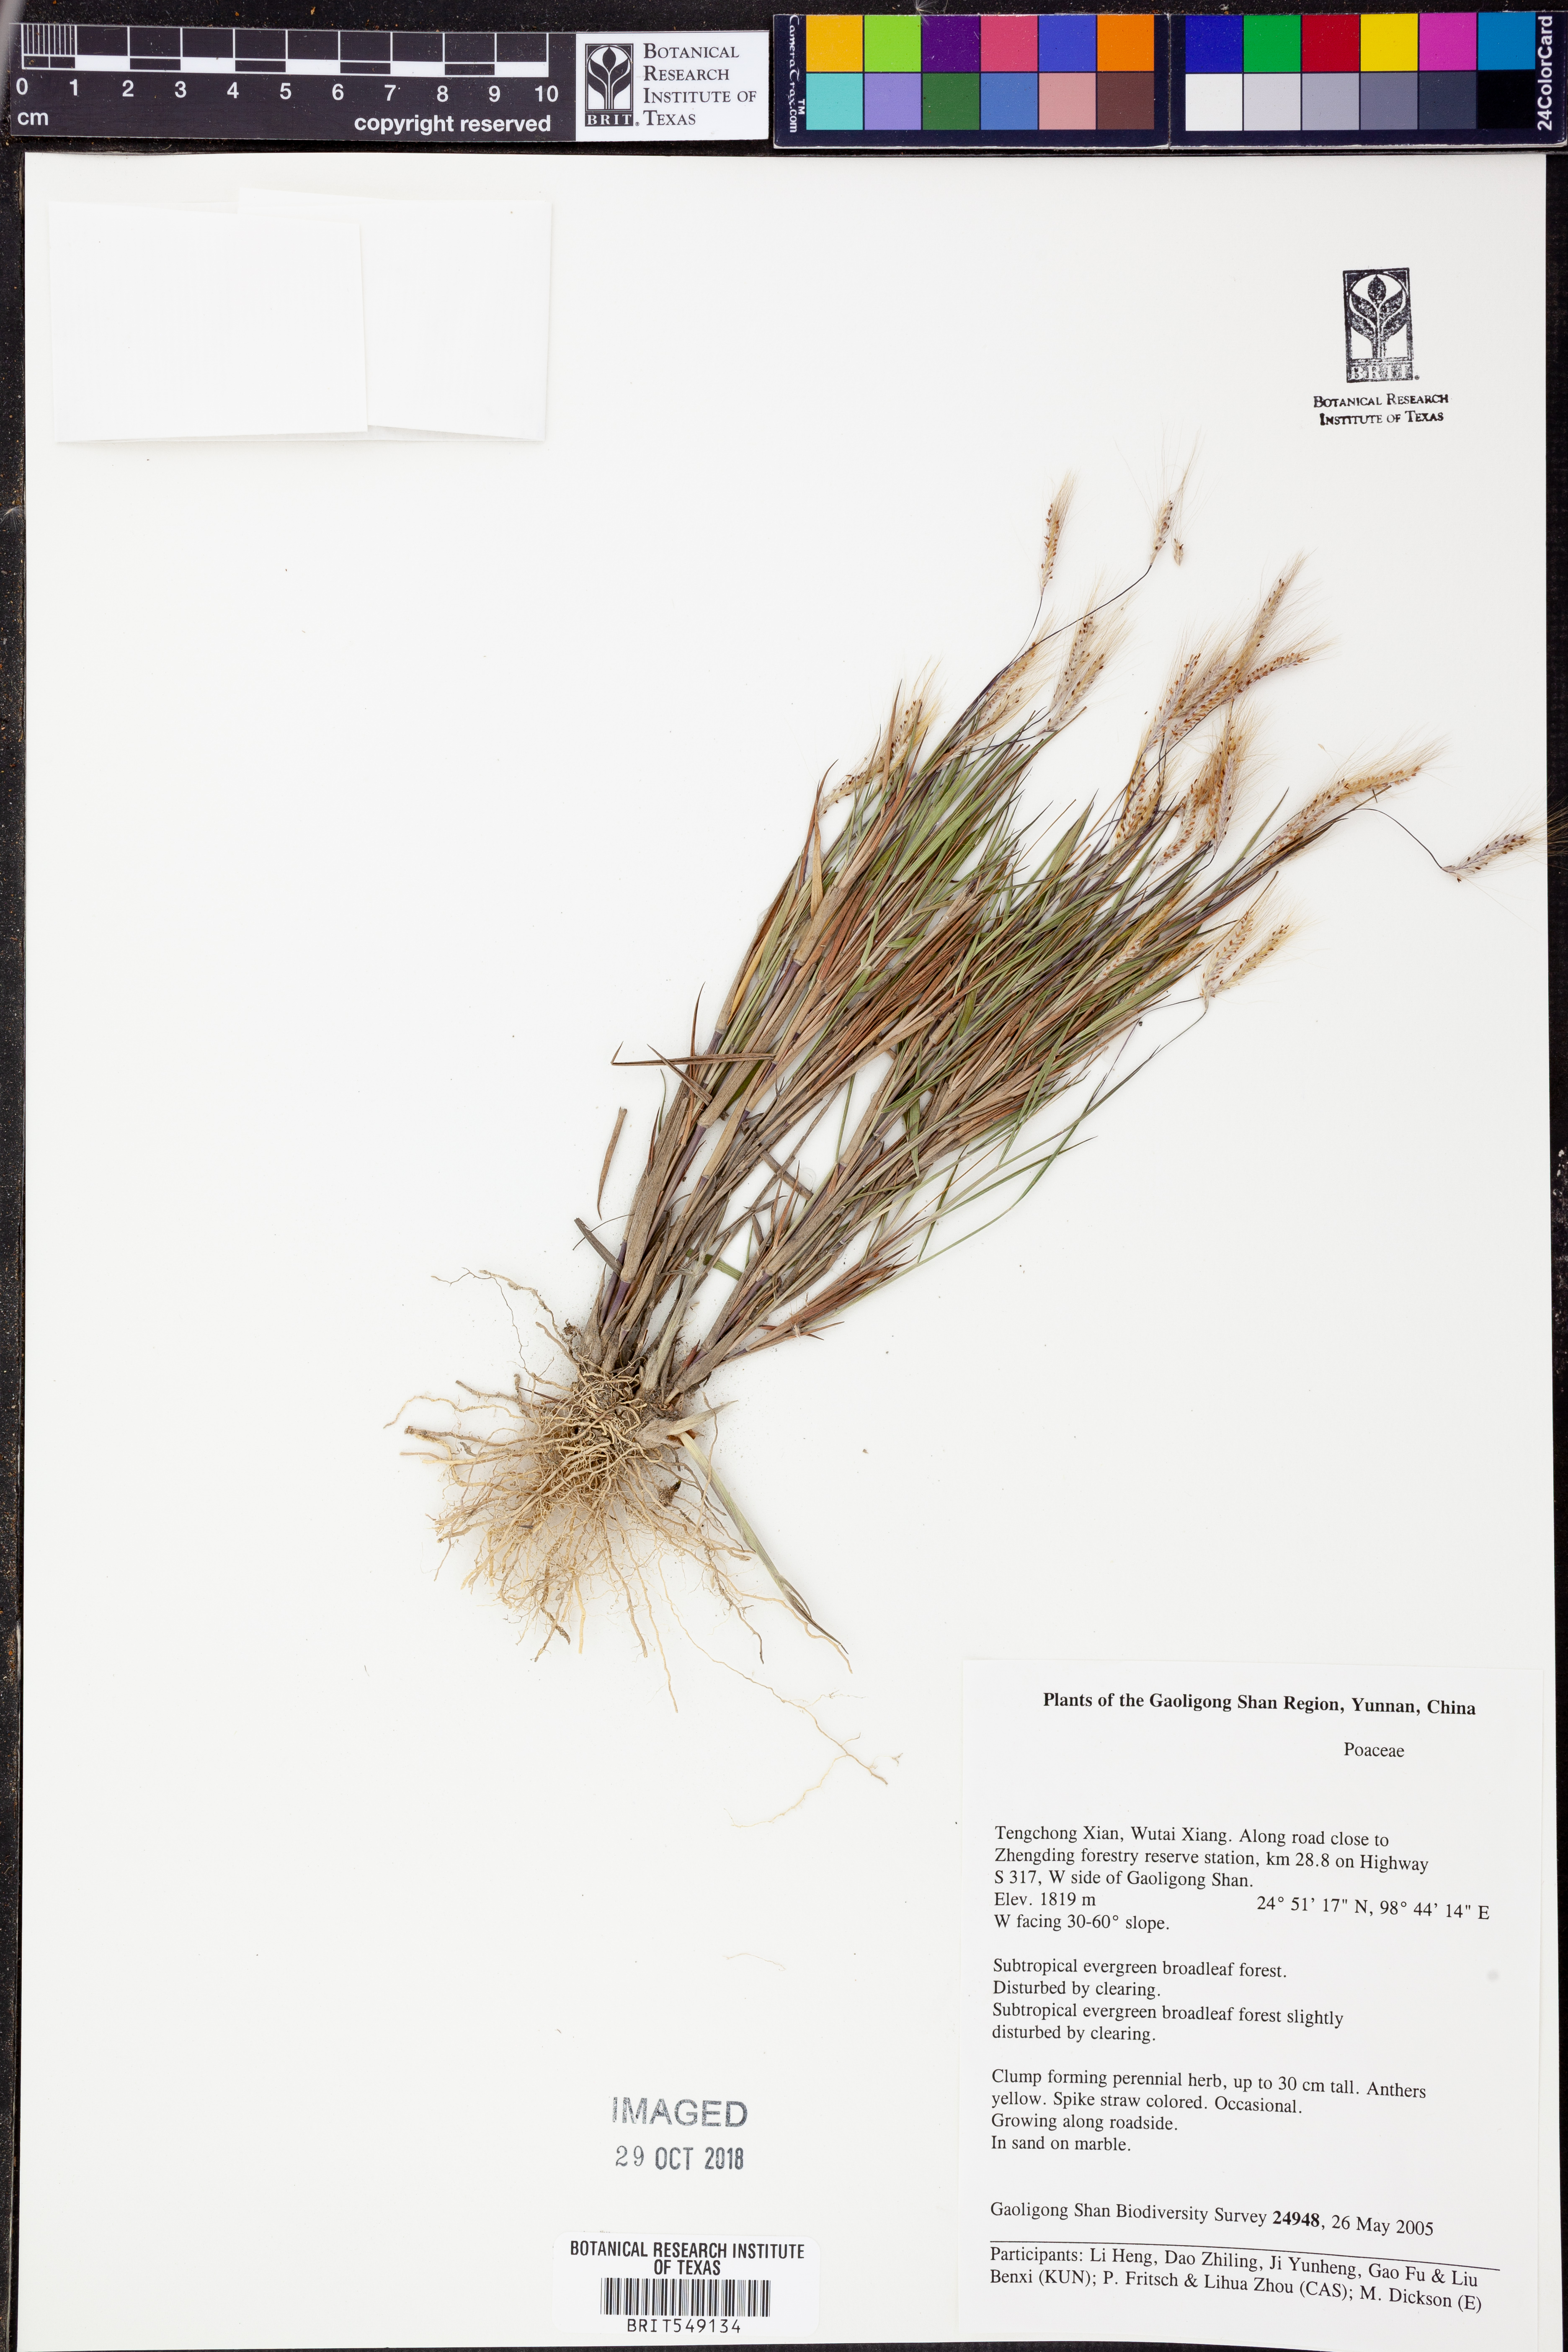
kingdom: Plantae
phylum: Tracheophyta
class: Liliopsida
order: Poales
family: Poaceae
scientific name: Poaceae
